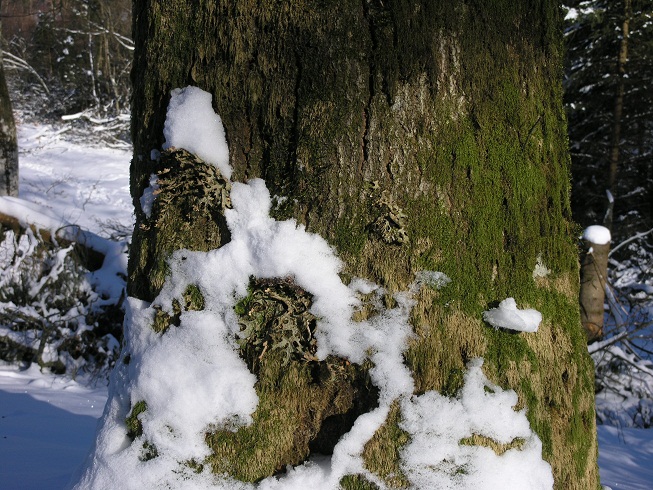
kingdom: Fungi
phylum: Ascomycota
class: Lecanoromycetes
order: Peltigerales
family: Lobariaceae
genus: Lobaria
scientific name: Lobaria pulmonaria
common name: almindelig lungelav
